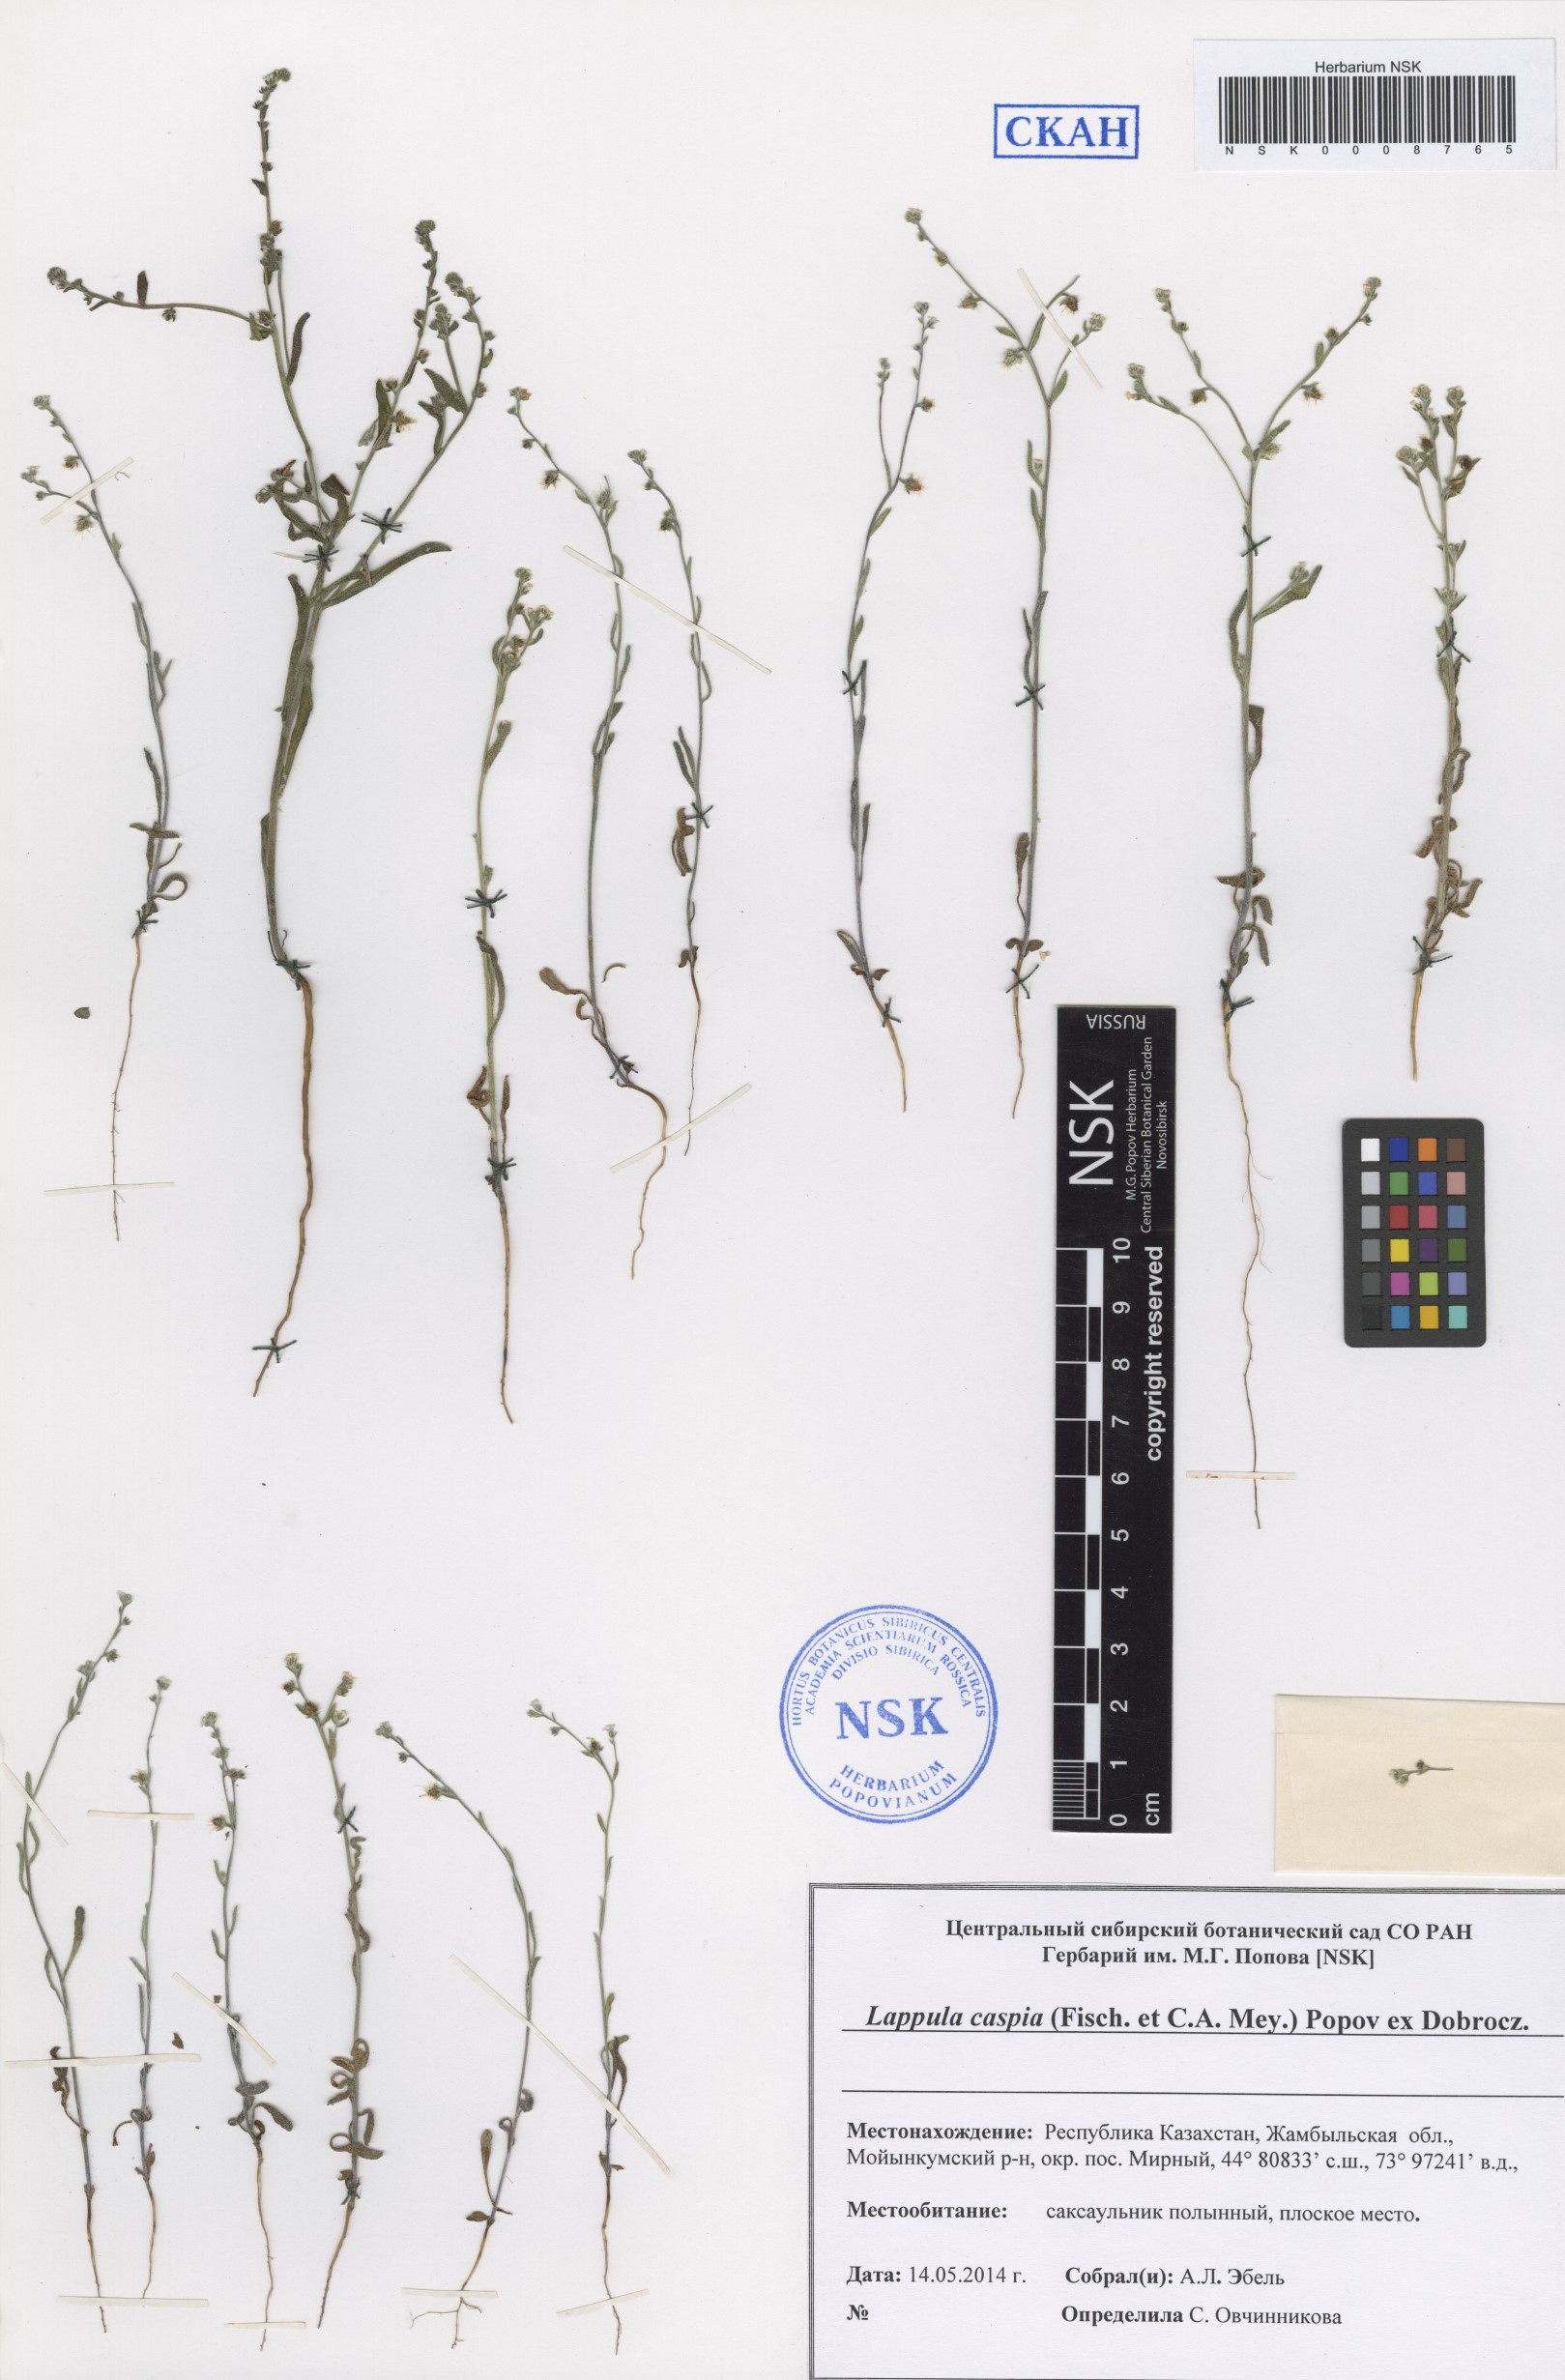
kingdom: Plantae
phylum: Tracheophyta
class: Magnoliopsida
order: Boraginales
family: Boraginaceae
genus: Lappula
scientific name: Lappula caspia
